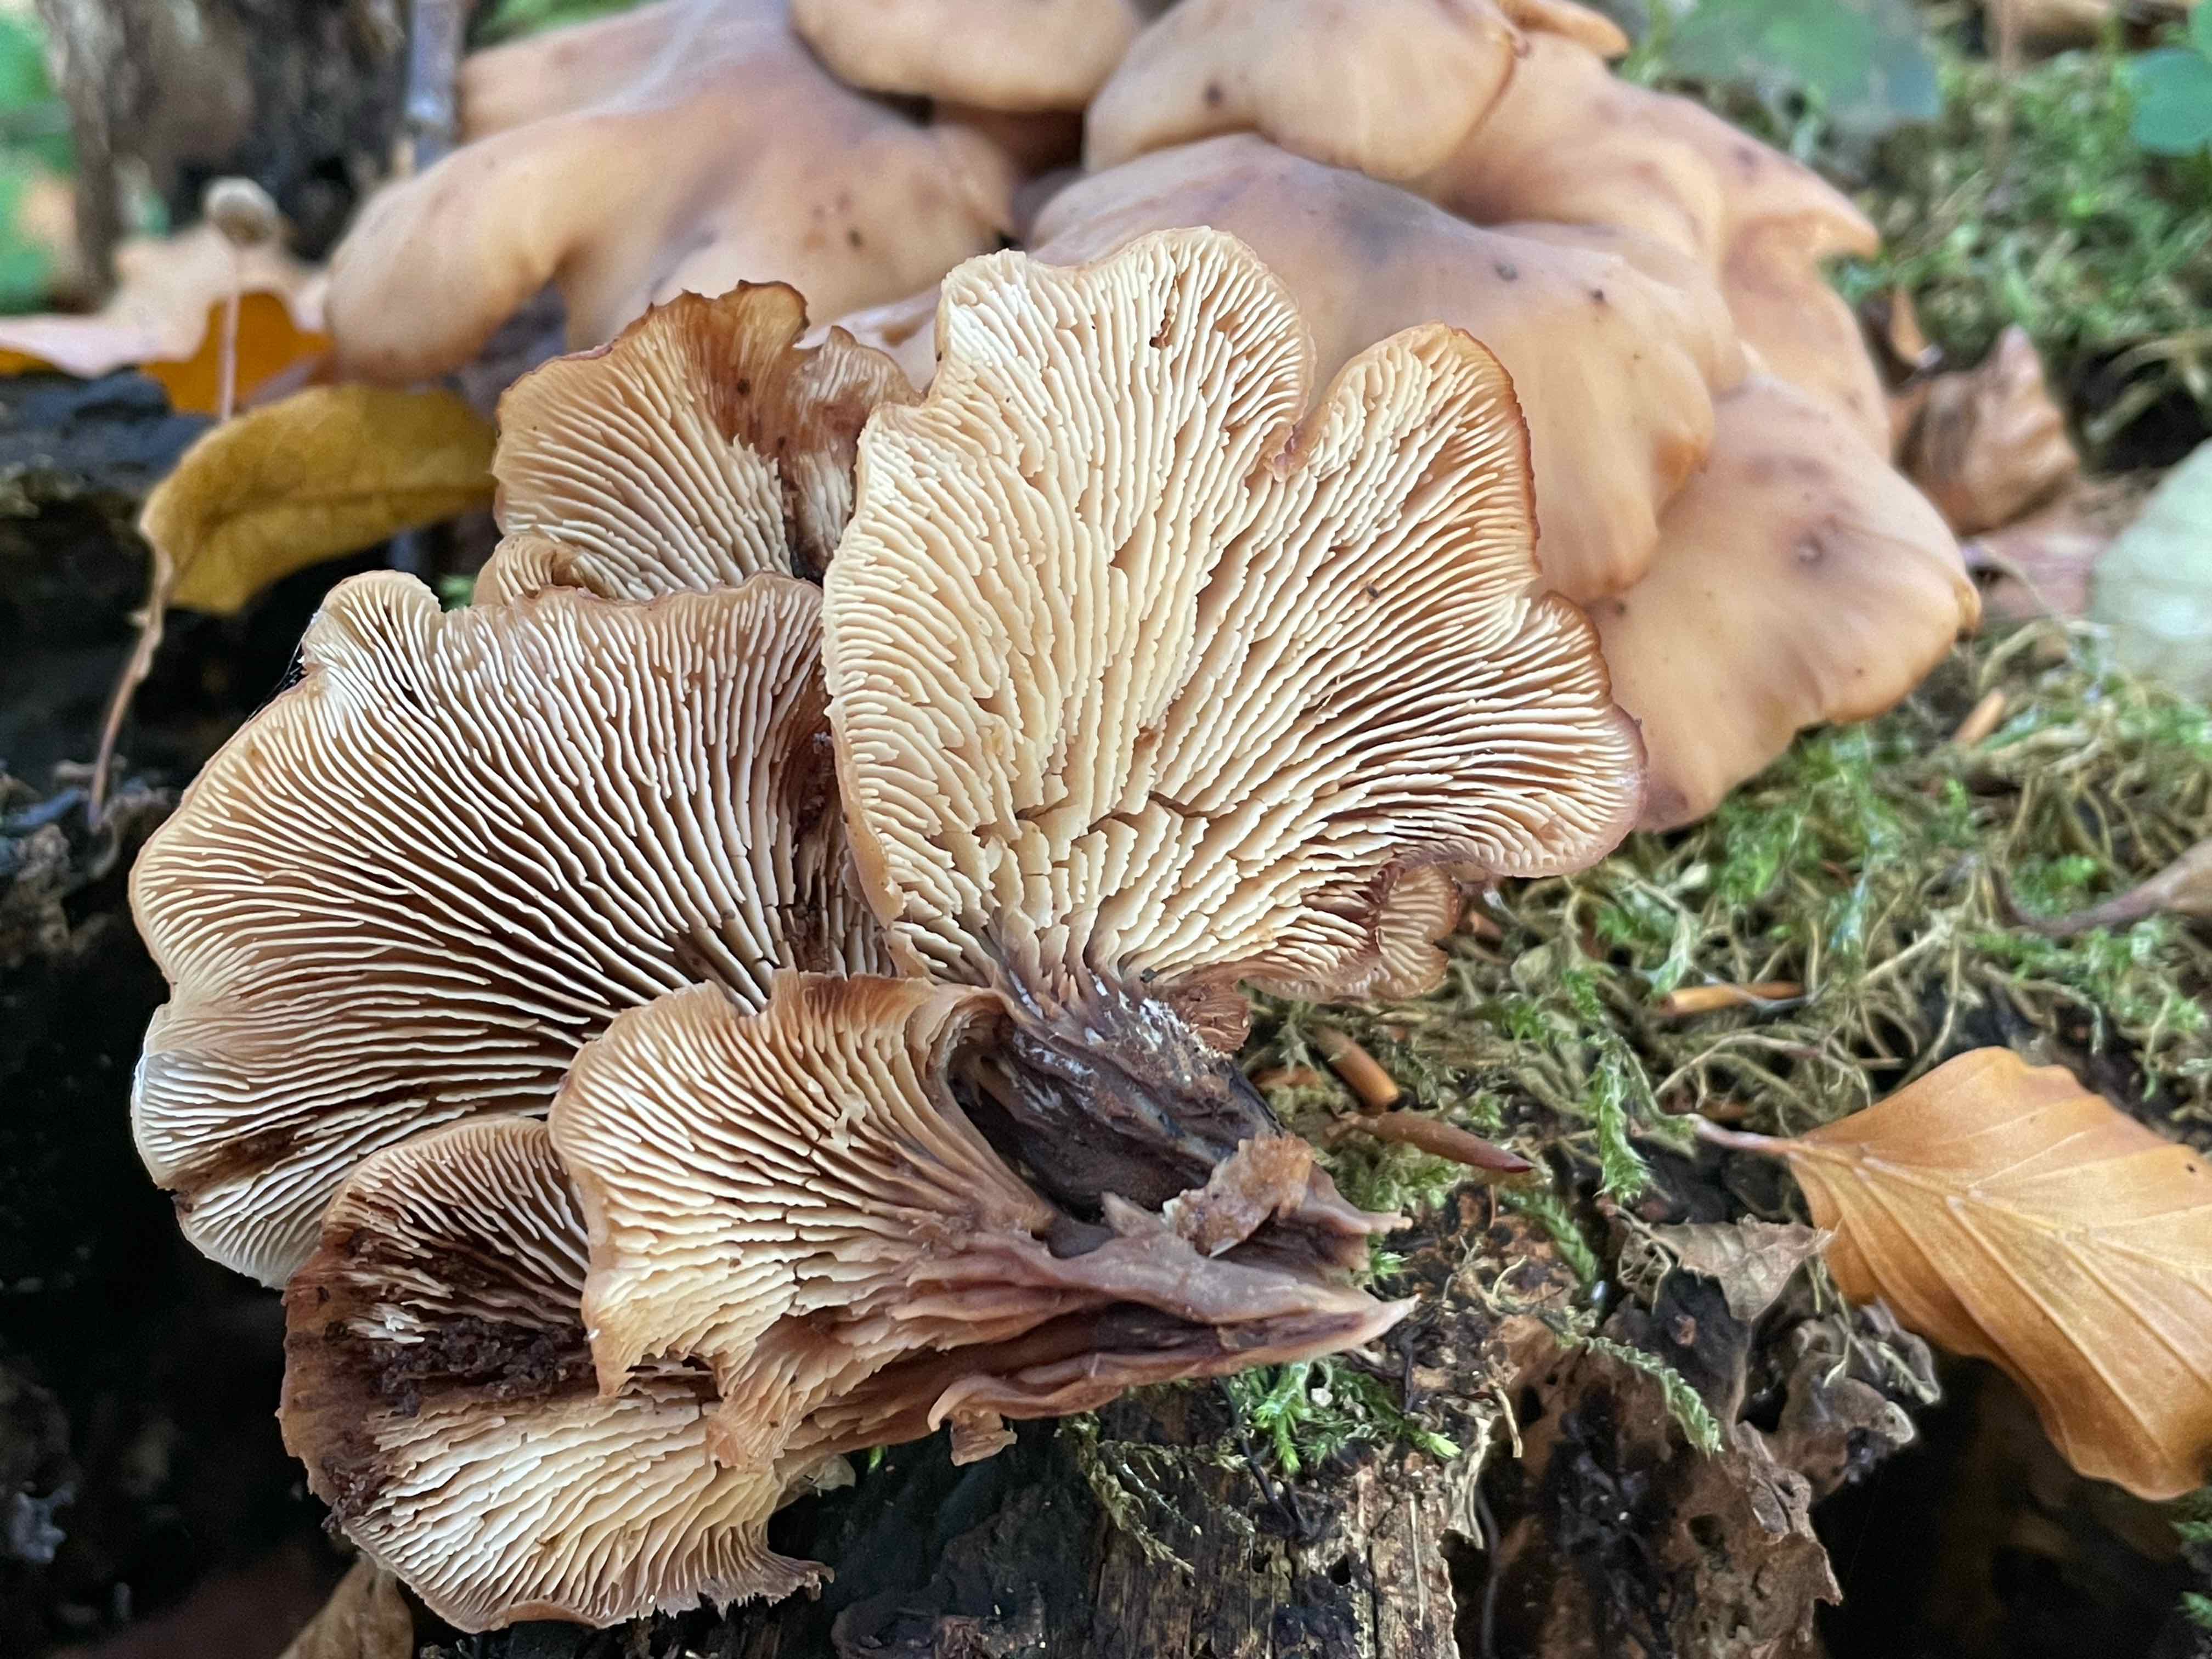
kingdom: Fungi
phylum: Basidiomycota
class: Agaricomycetes
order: Russulales
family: Auriscalpiaceae
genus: Lentinellus
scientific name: Lentinellus cochleatus
